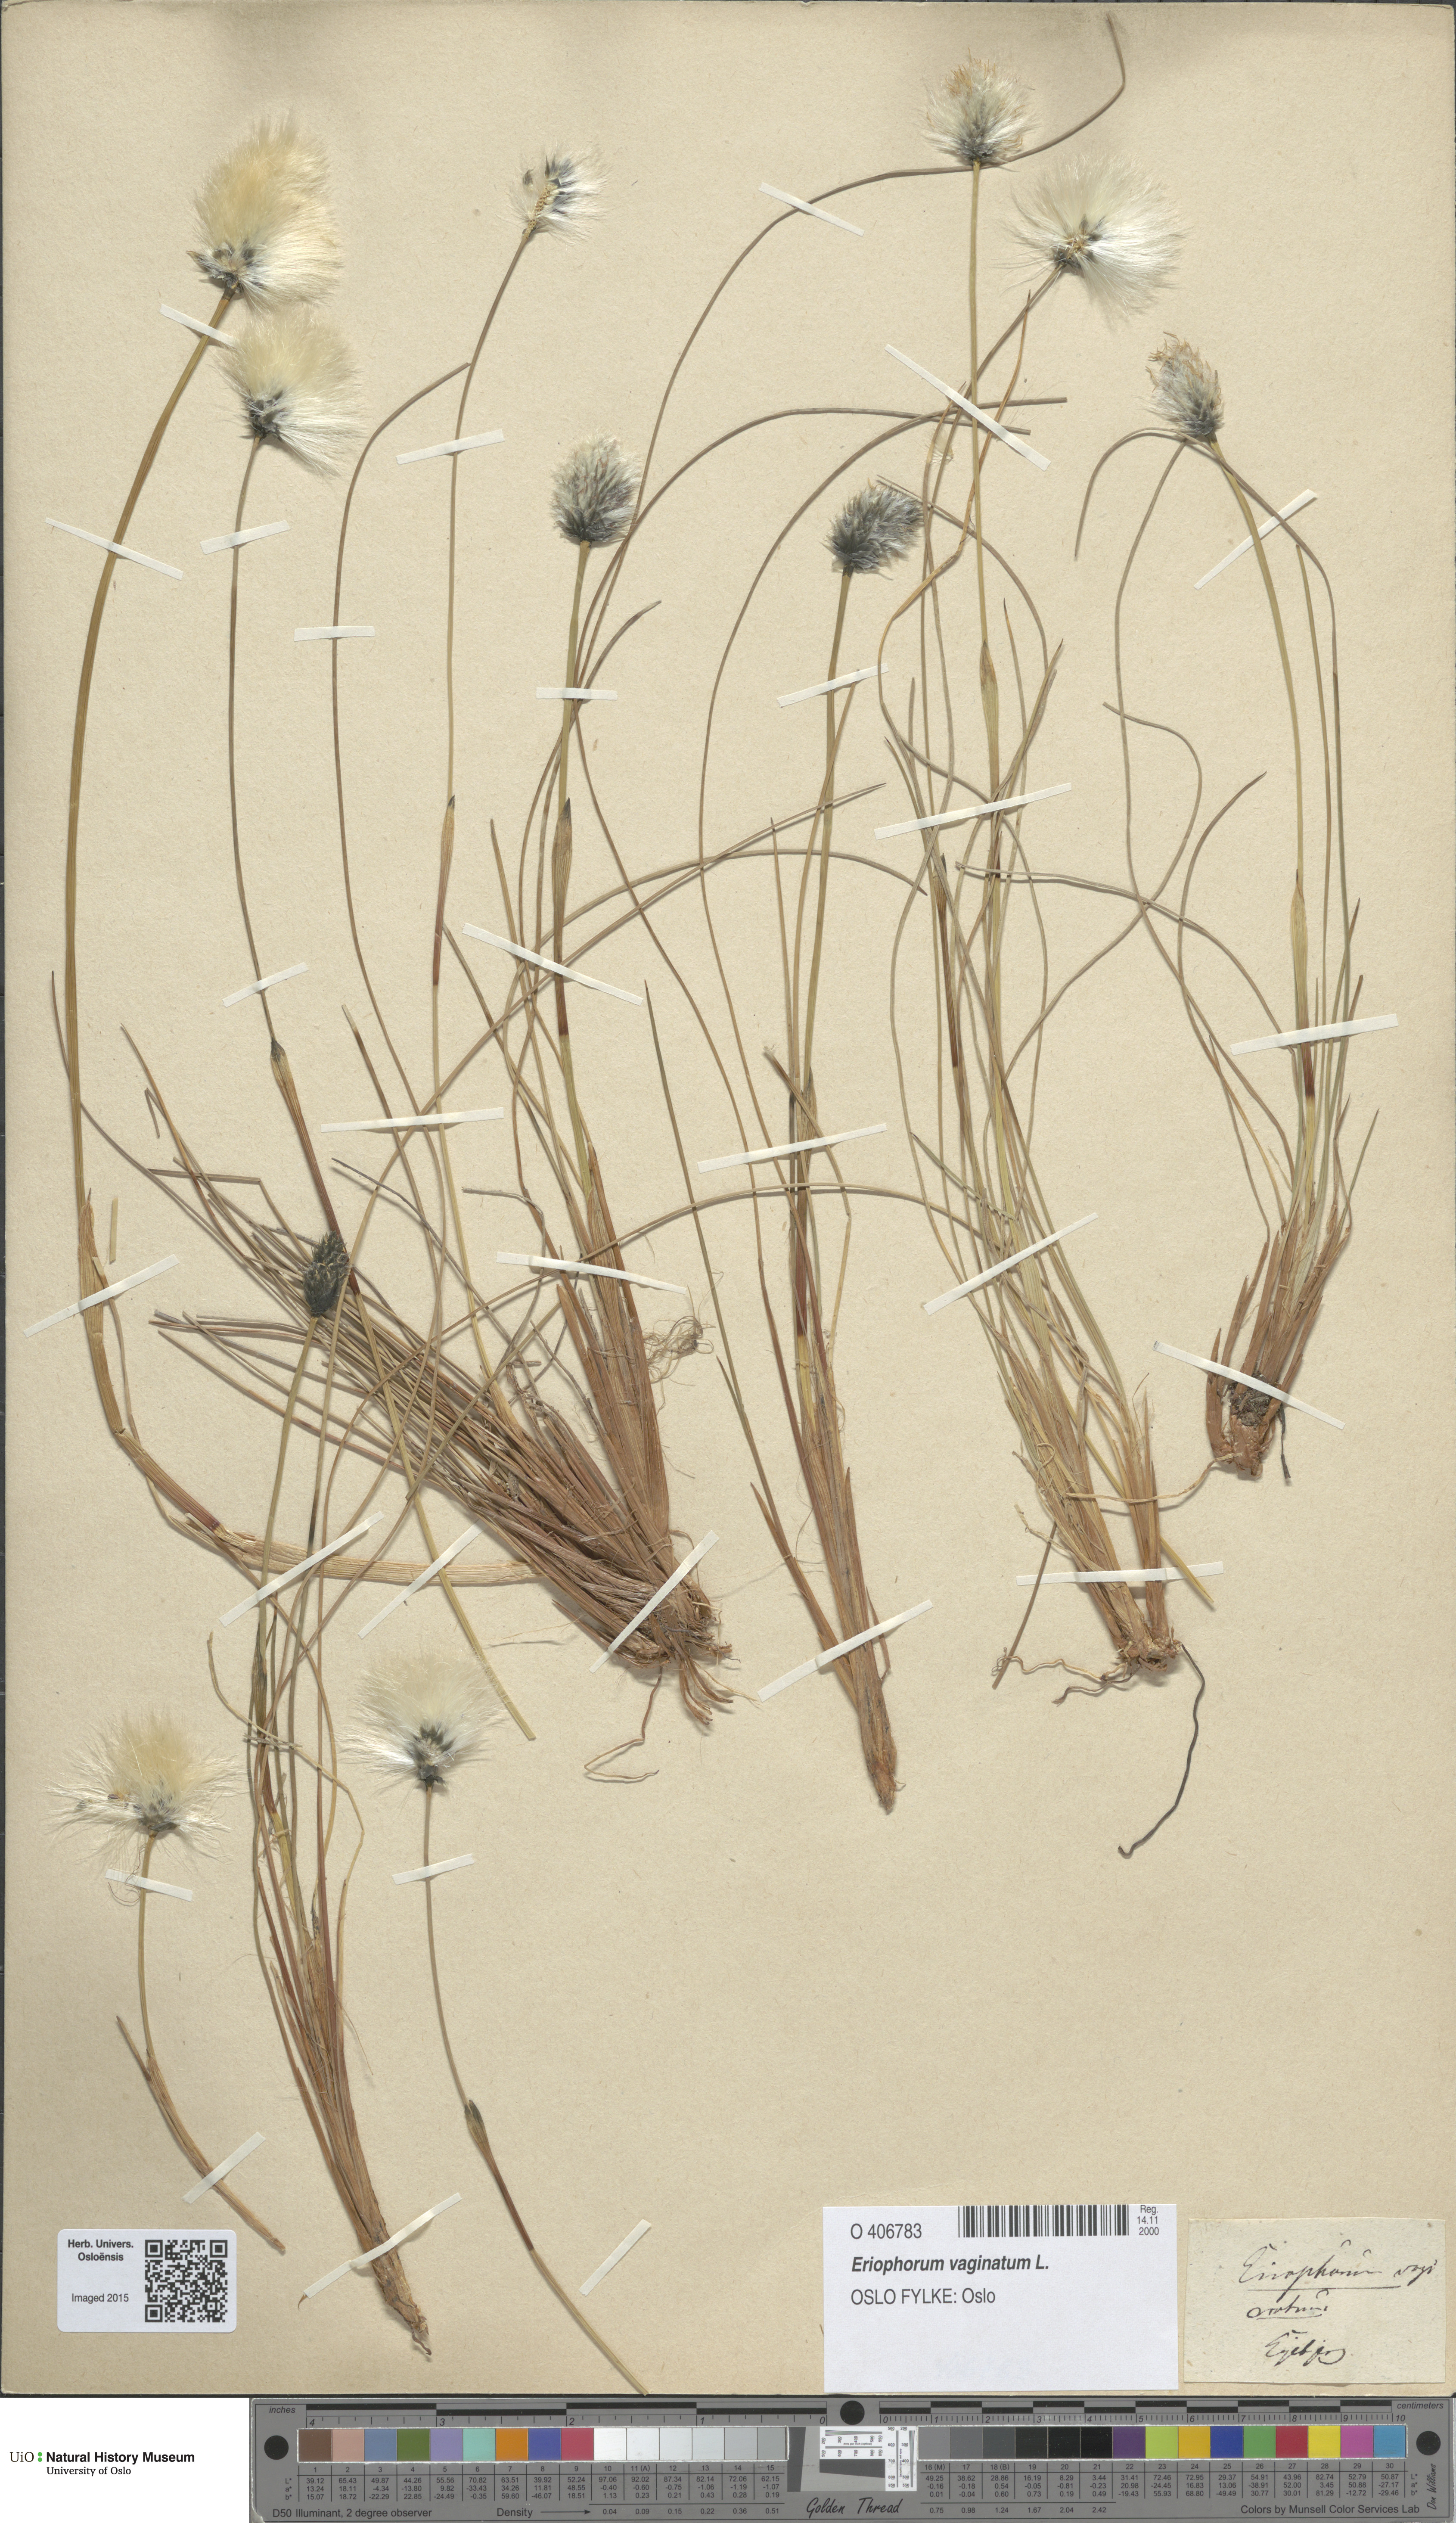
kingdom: Plantae
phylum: Tracheophyta
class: Liliopsida
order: Poales
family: Cyperaceae
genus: Eriophorum
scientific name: Eriophorum vaginatum
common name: Hare's-tail cottongrass
